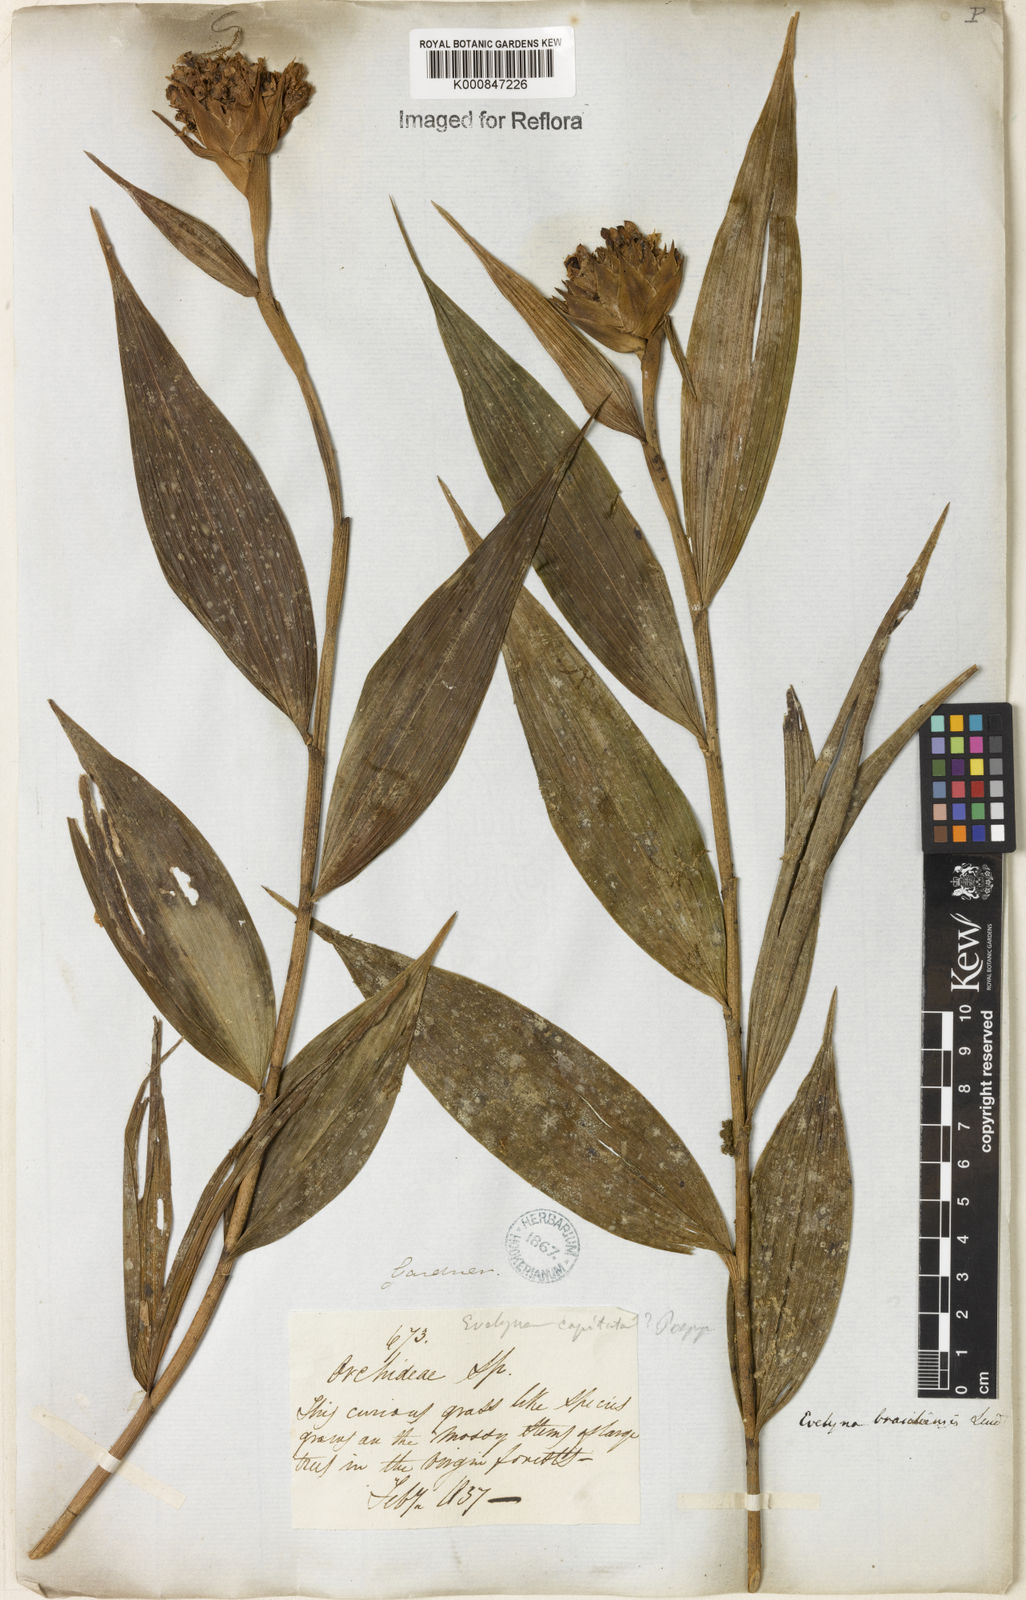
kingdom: Plantae
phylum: Tracheophyta
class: Liliopsida
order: Asparagales
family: Orchidaceae
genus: Elleanthus
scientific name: Elleanthus brasiliensis
